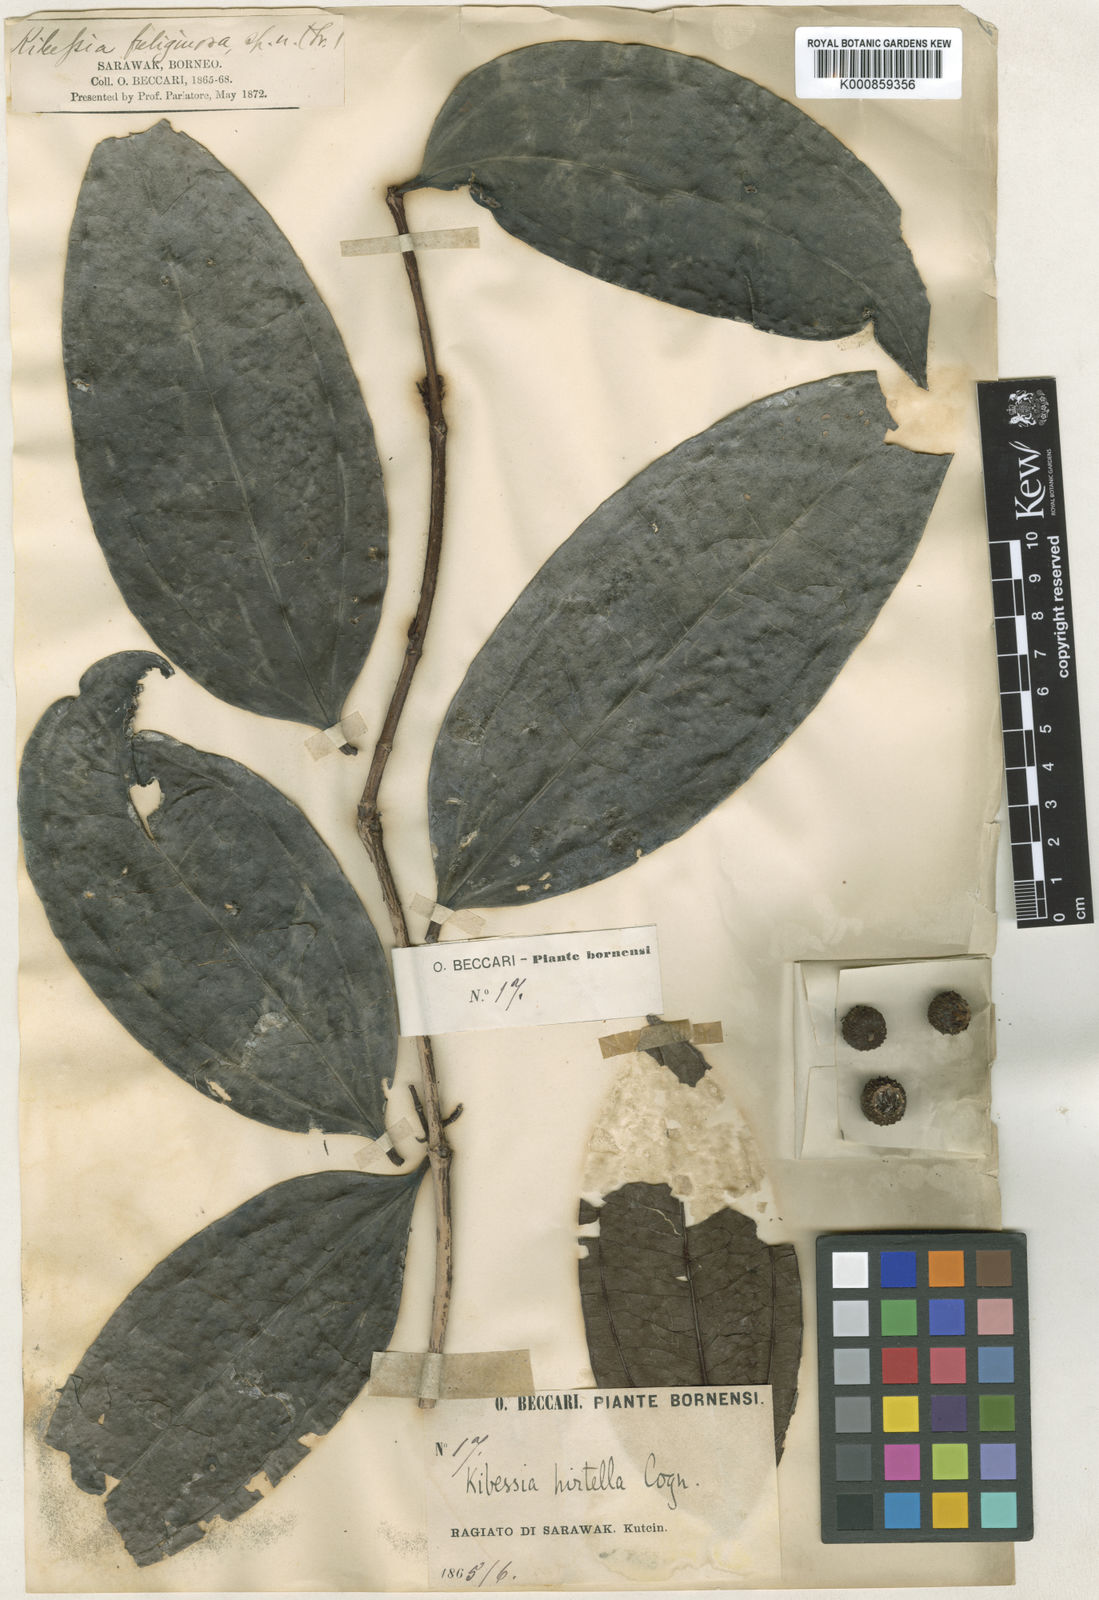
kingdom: Plantae
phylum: Tracheophyta
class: Magnoliopsida
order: Myrtales
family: Melastomataceae
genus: Pternandra
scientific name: Pternandra hirtella
